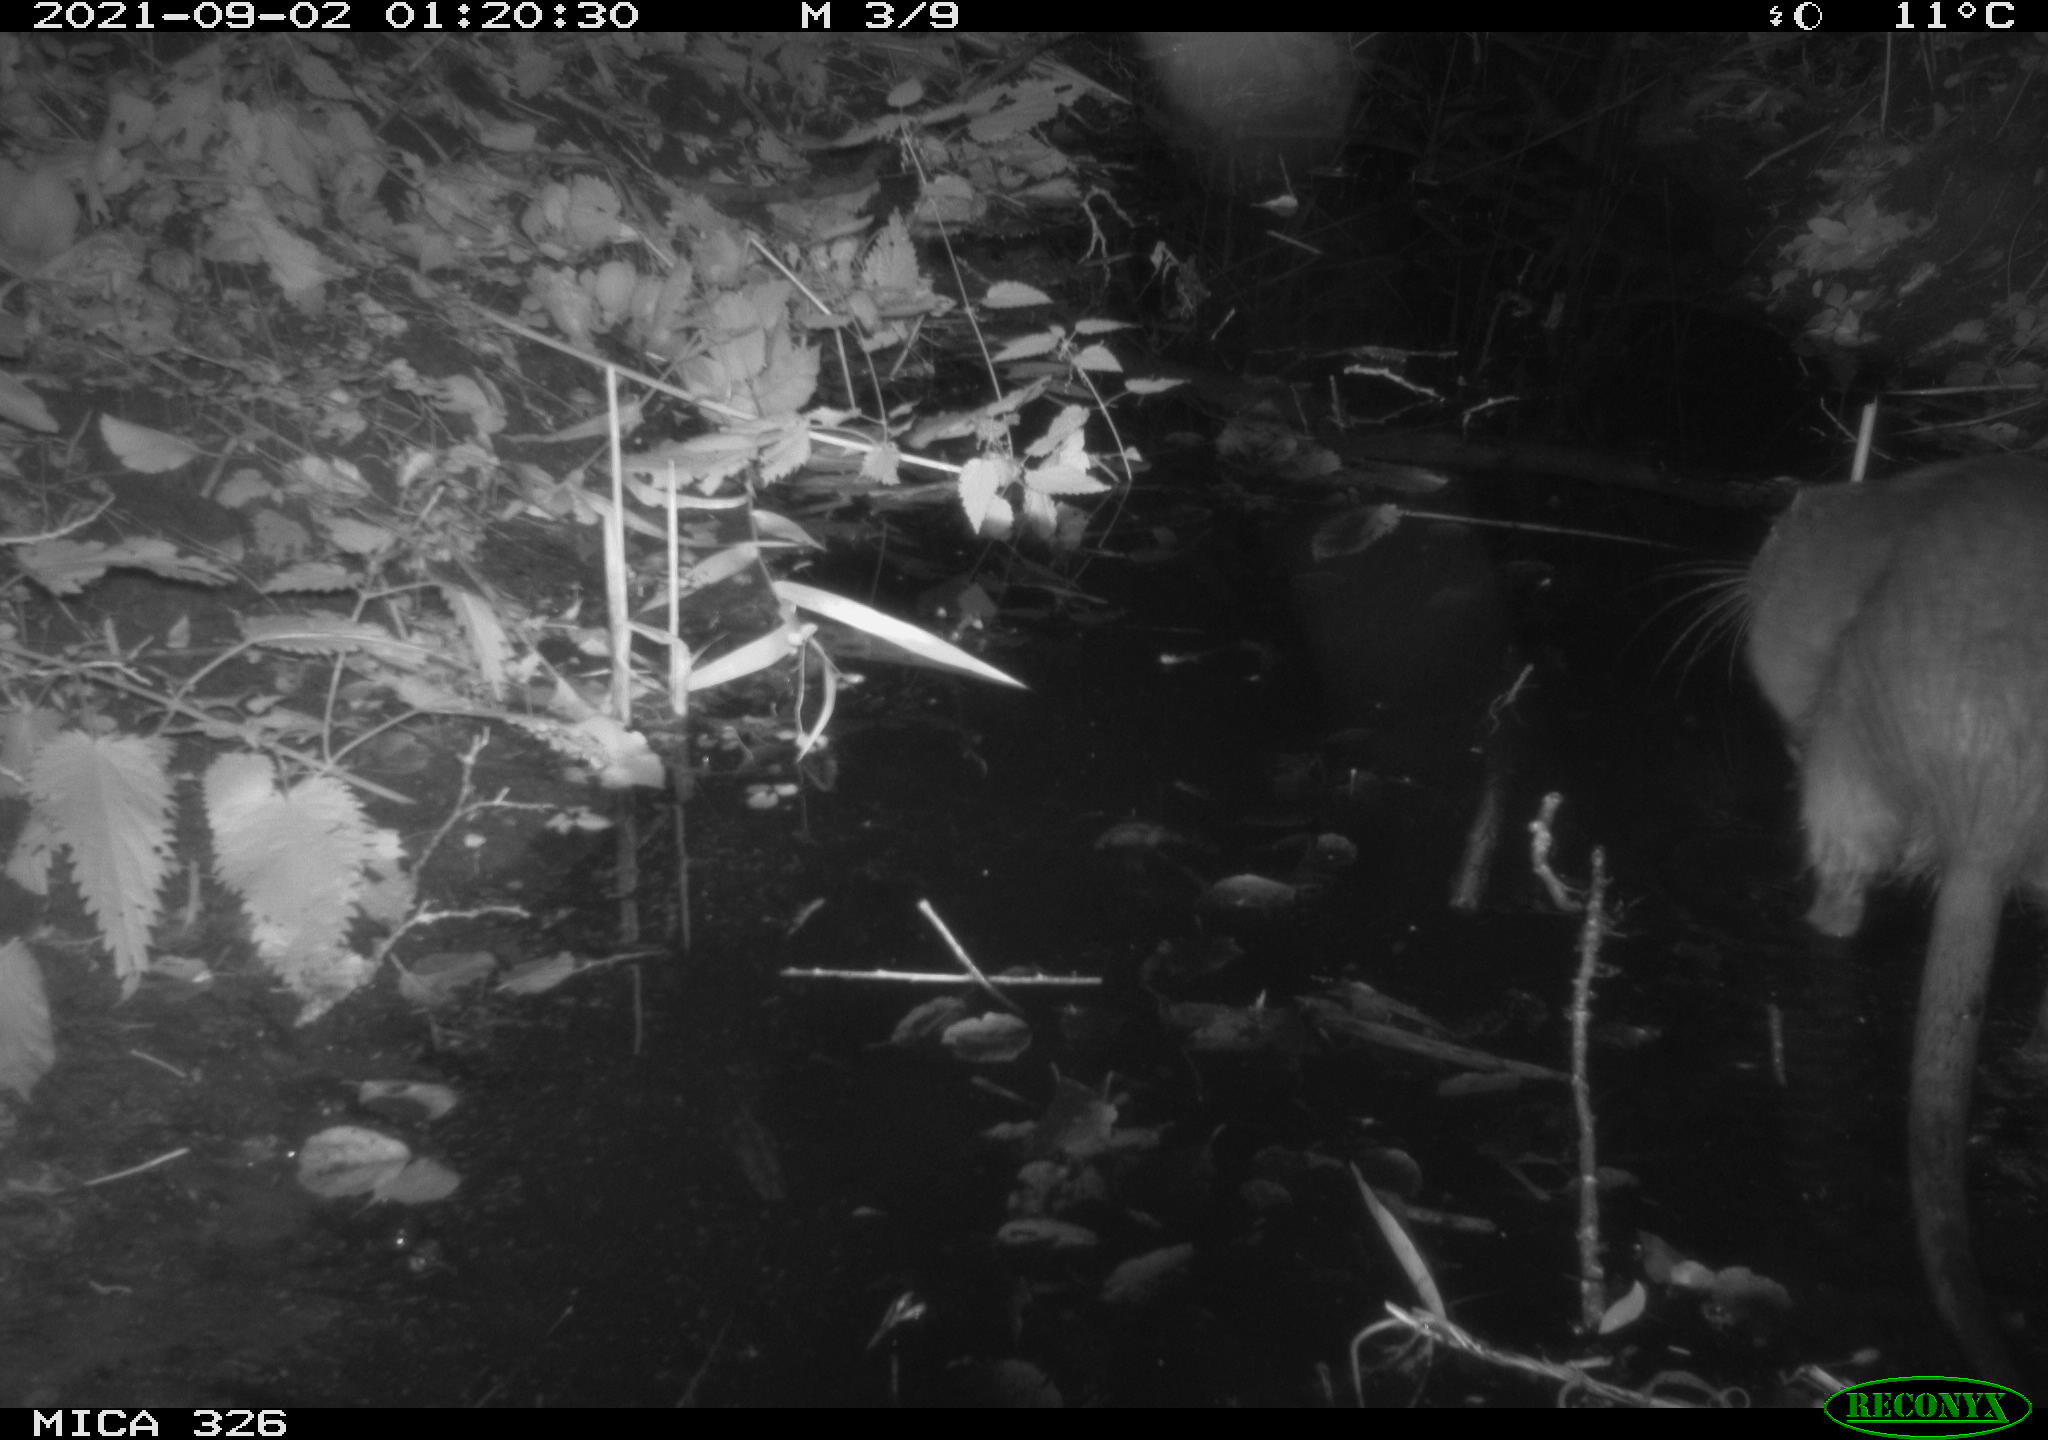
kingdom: Animalia
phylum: Chordata
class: Mammalia
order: Rodentia
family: Myocastoridae
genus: Myocastor
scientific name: Myocastor coypus
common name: Coypu
